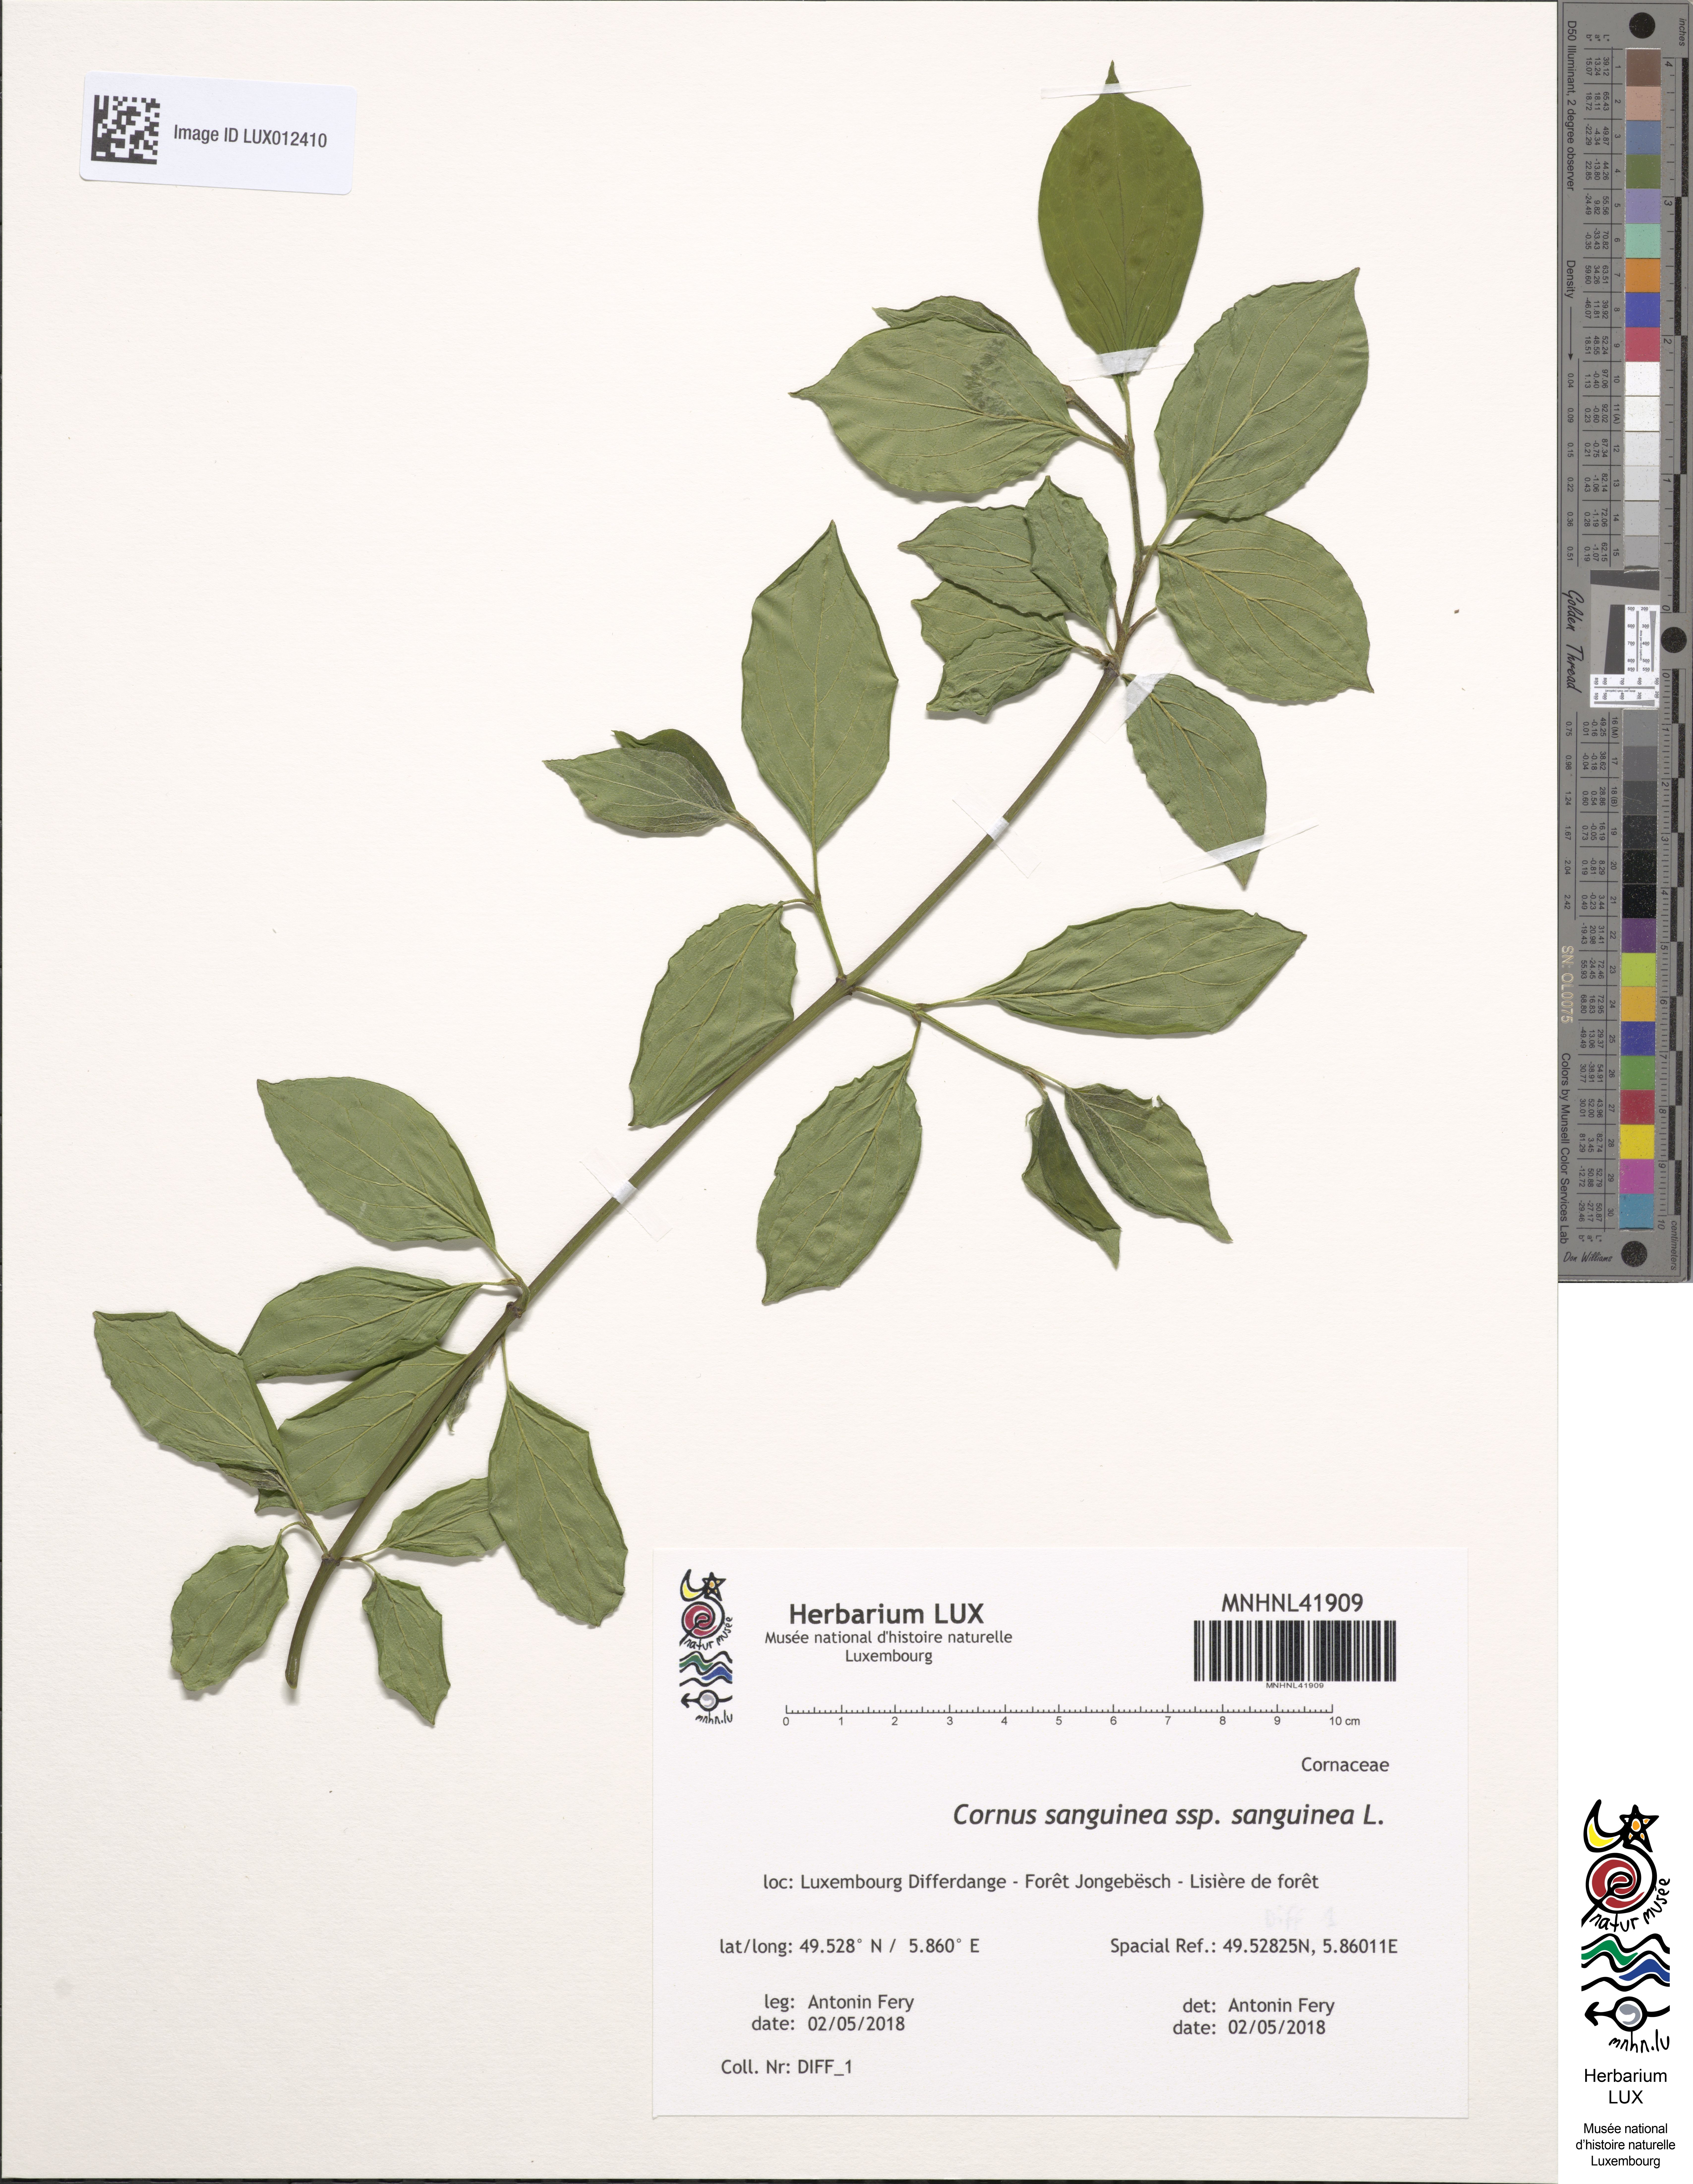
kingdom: Plantae
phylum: Tracheophyta
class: Magnoliopsida
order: Cornales
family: Cornaceae
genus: Cornus
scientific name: Cornus sanguinea
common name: Dogwood
